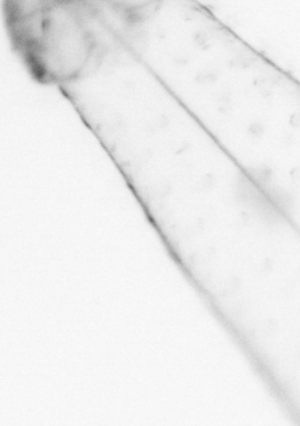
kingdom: Animalia
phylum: Chaetognatha
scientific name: Chaetognatha
